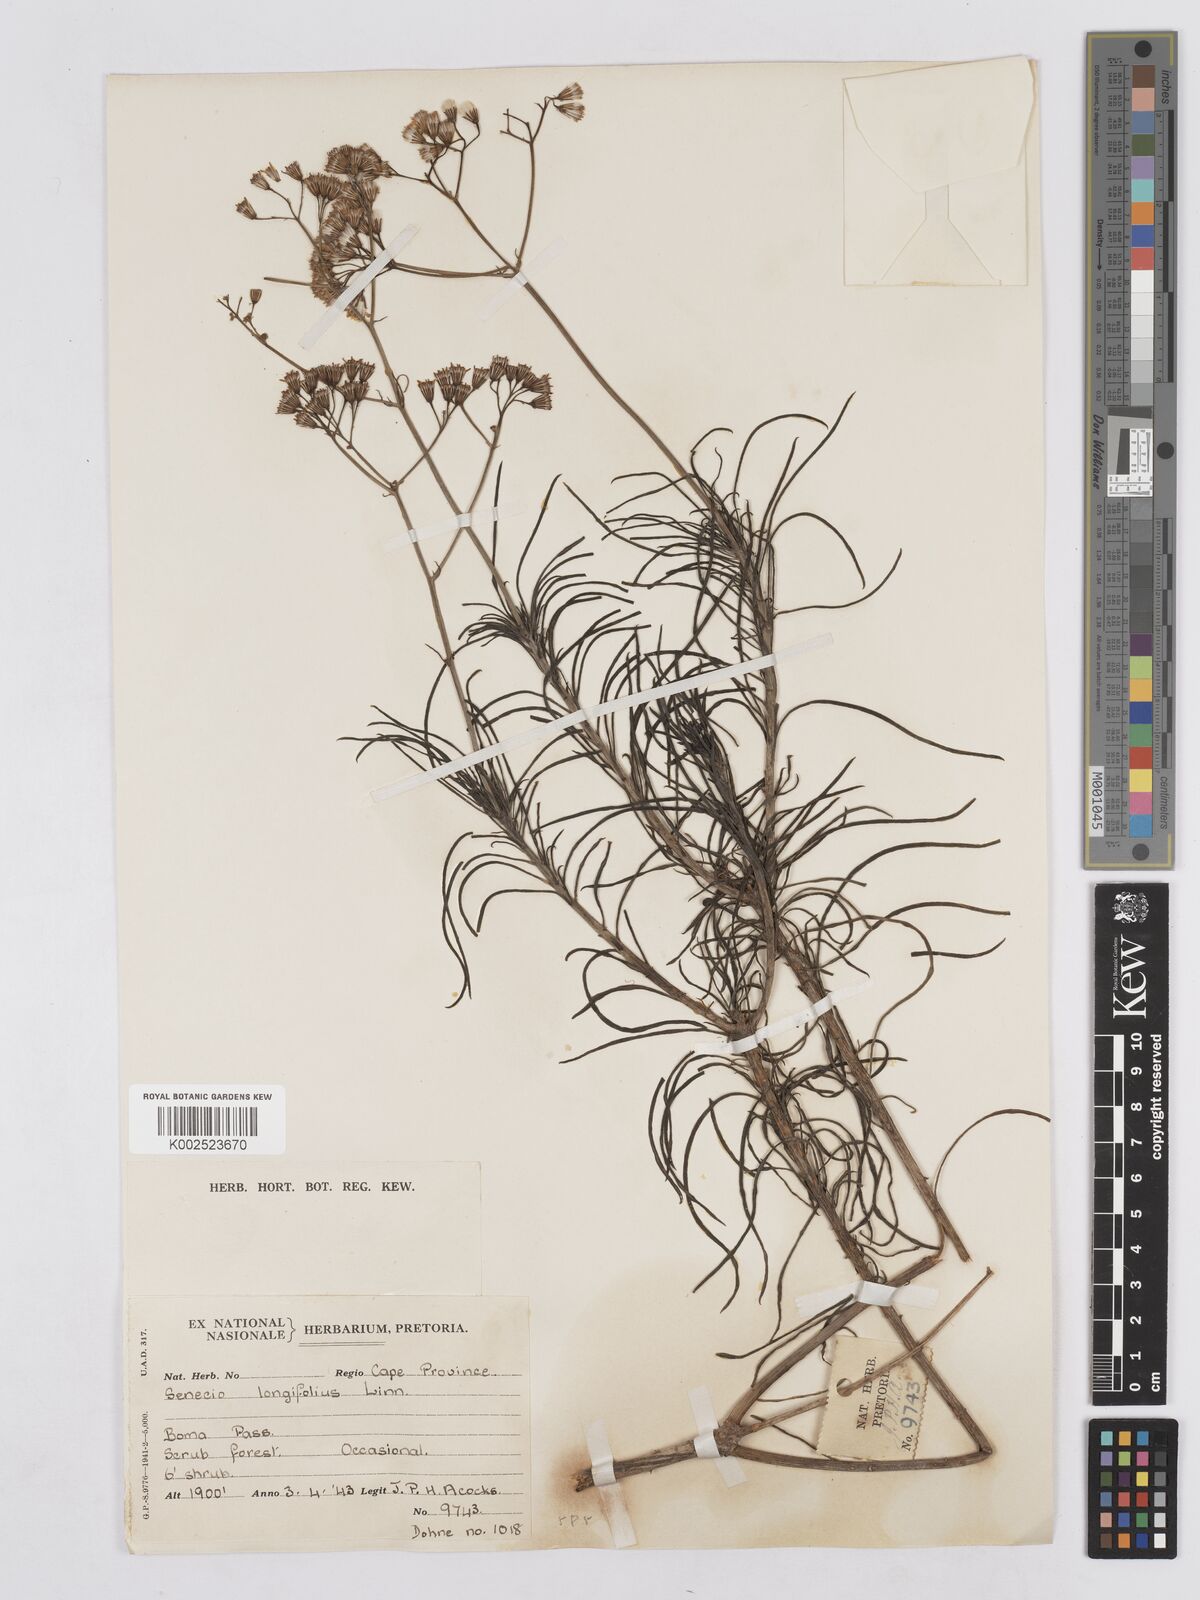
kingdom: Plantae
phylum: Tracheophyta
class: Magnoliopsida
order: Asterales
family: Asteraceae
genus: Senecio
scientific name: Senecio linifolius
